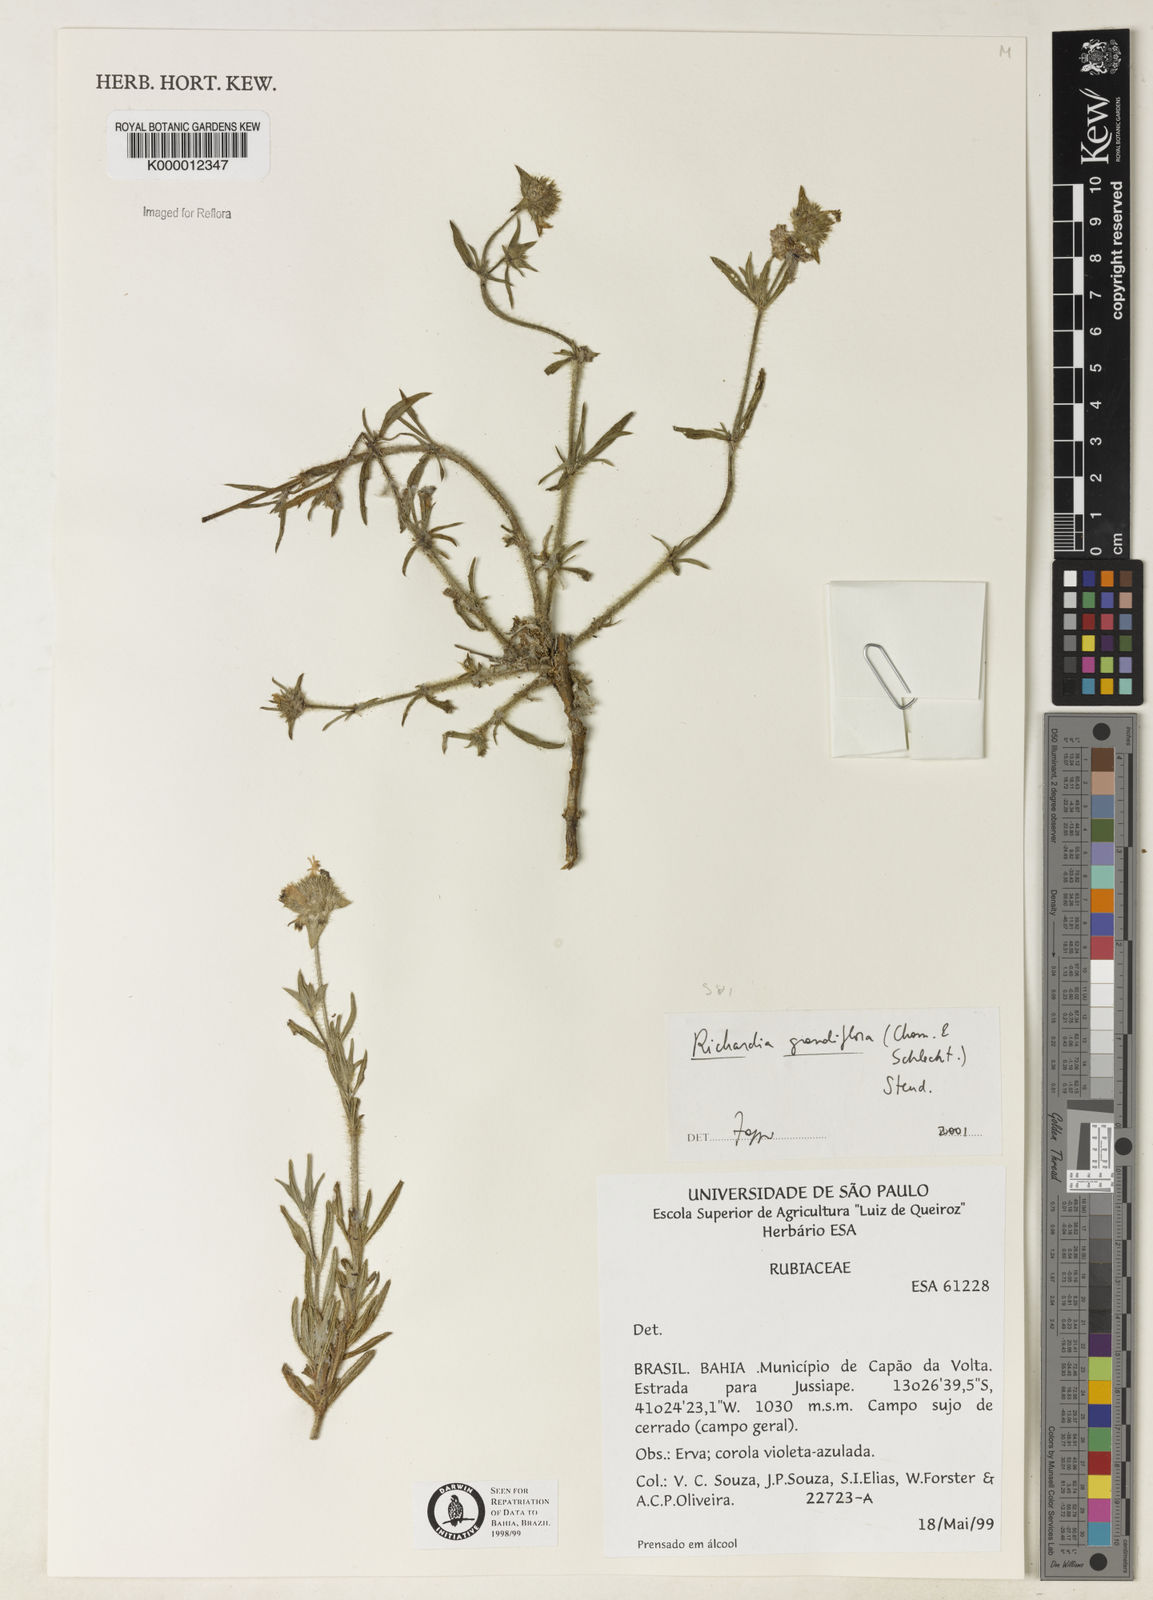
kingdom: Plantae
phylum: Tracheophyta
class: Magnoliopsida
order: Gentianales
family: Rubiaceae
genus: Richardia
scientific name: Richardia grandiflora
